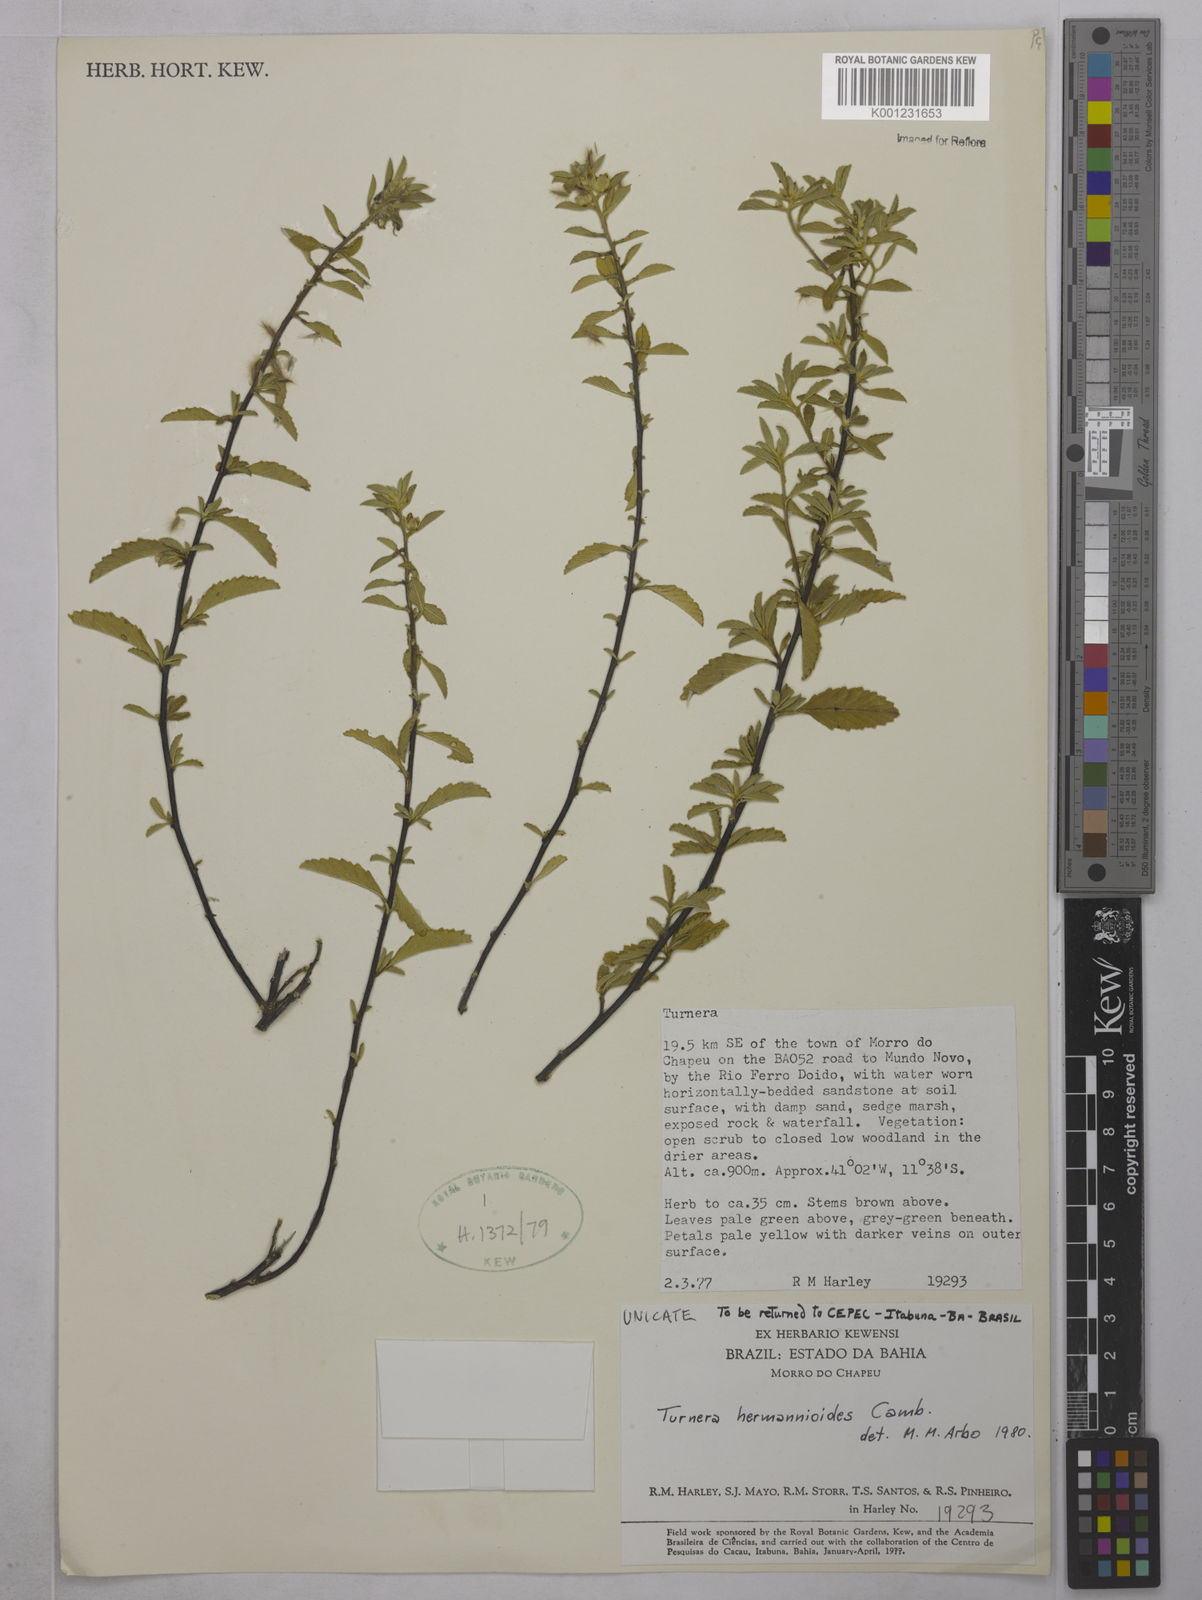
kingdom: Plantae
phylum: Tracheophyta
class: Magnoliopsida
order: Malpighiales
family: Turneraceae
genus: Turnera
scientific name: Turnera hermannioides
